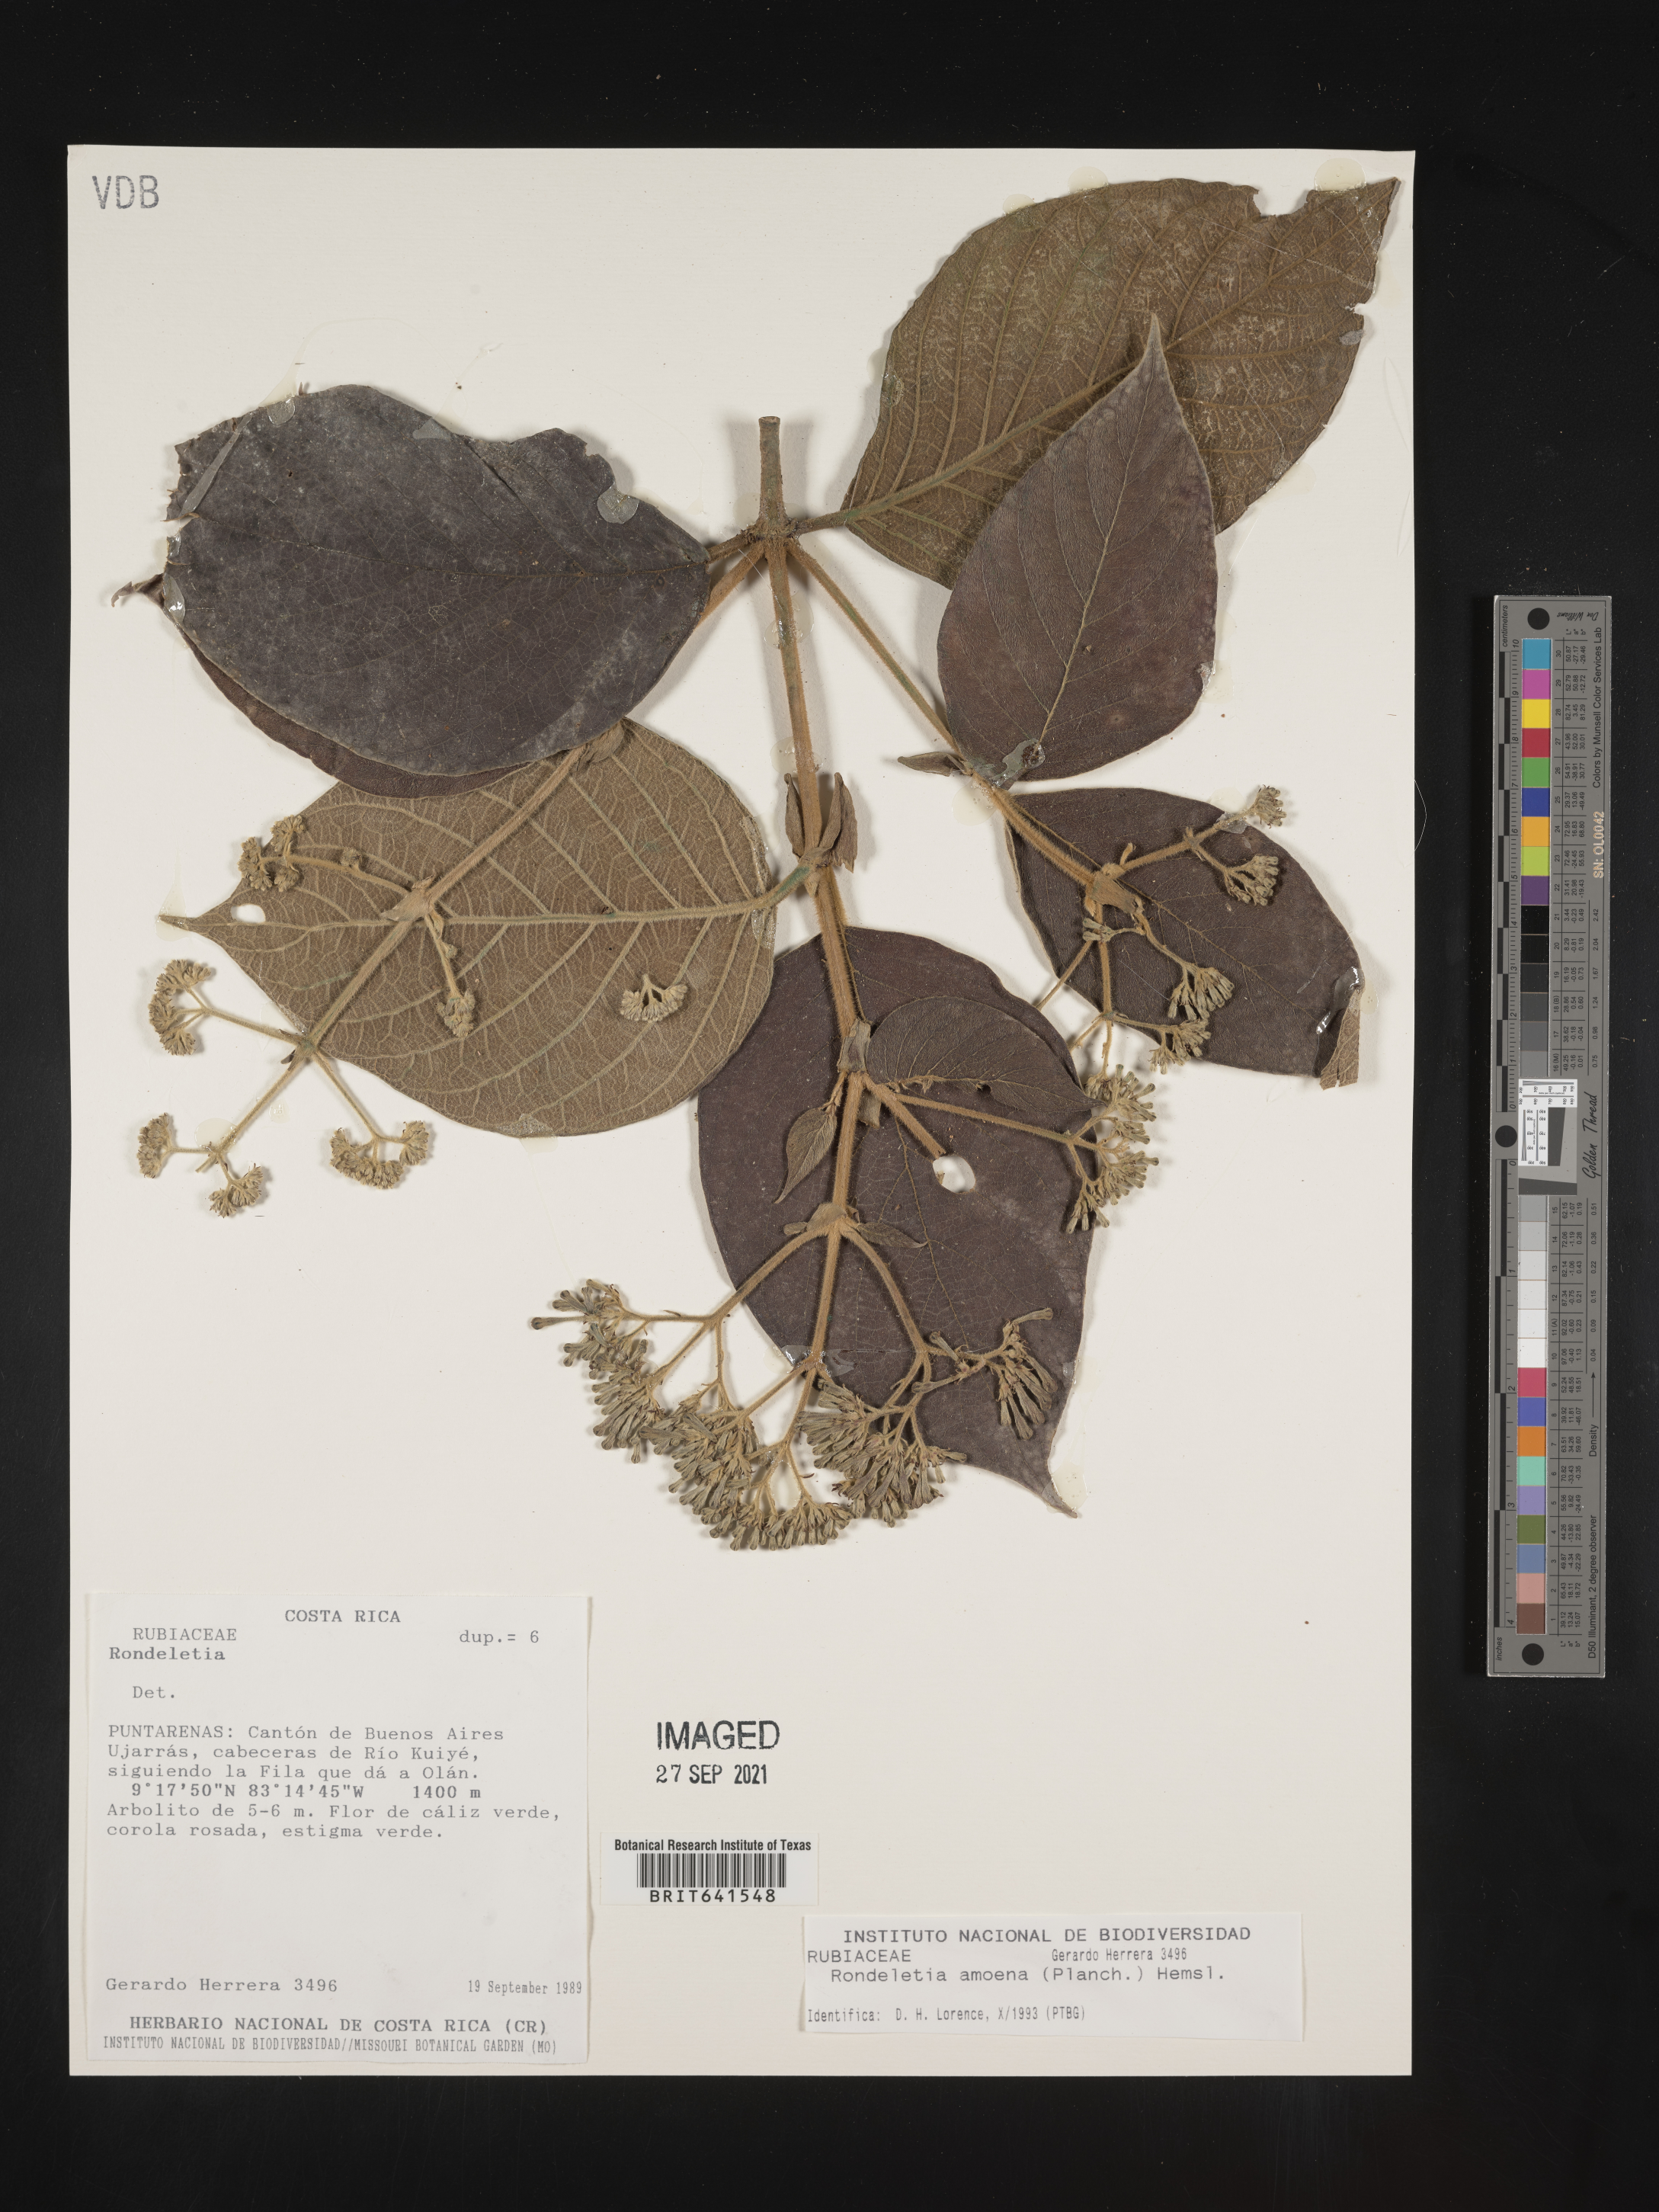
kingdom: Plantae
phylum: Tracheophyta
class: Magnoliopsida
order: Gentianales
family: Rubiaceae
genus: Rondeletia
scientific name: Rondeletia
